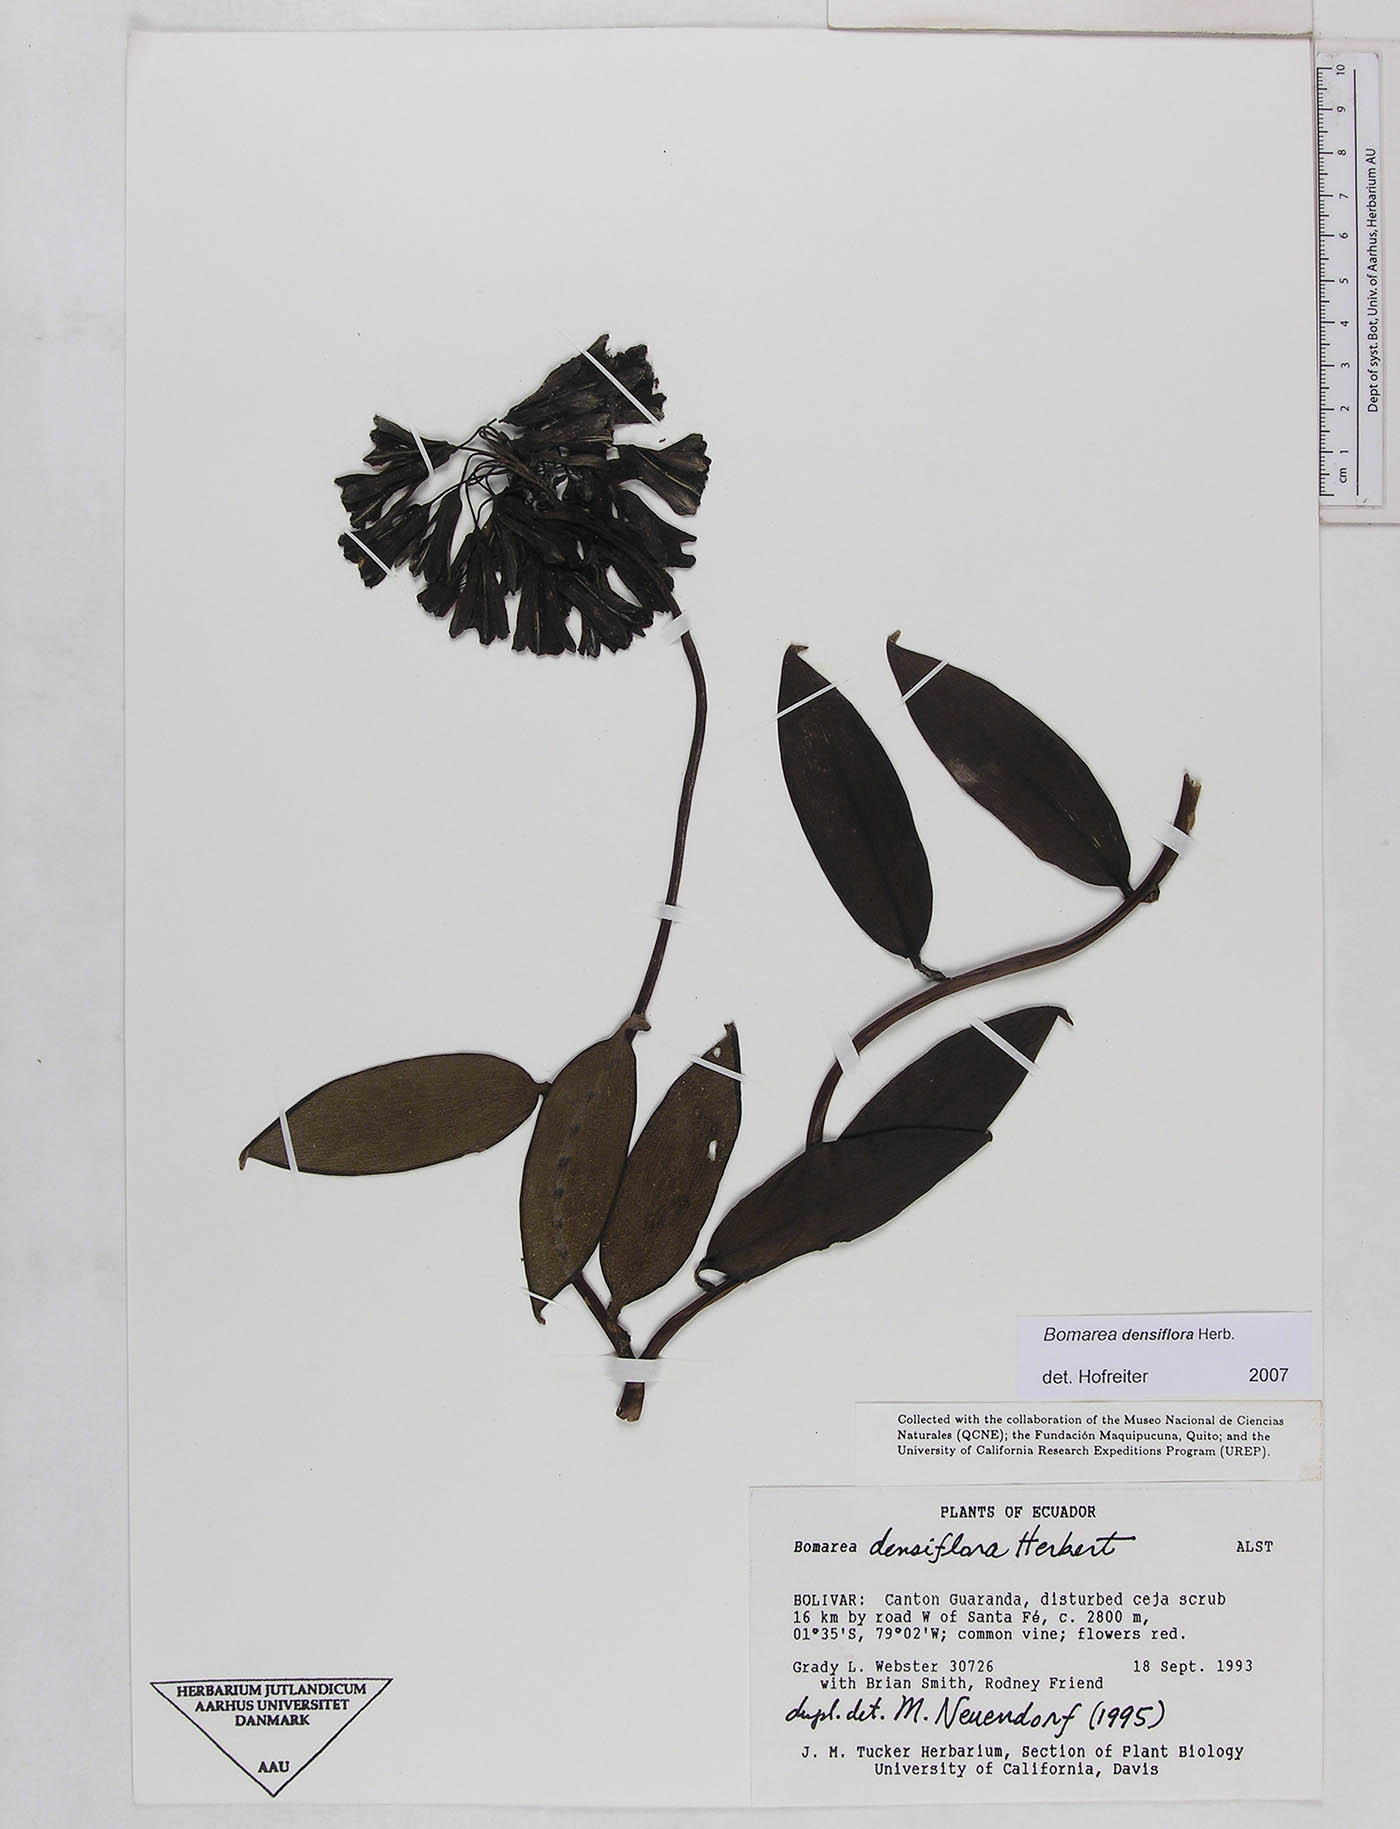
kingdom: Plantae
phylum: Tracheophyta
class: Liliopsida
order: Liliales
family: Alstroemeriaceae
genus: Bomarea
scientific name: Bomarea densiflora
